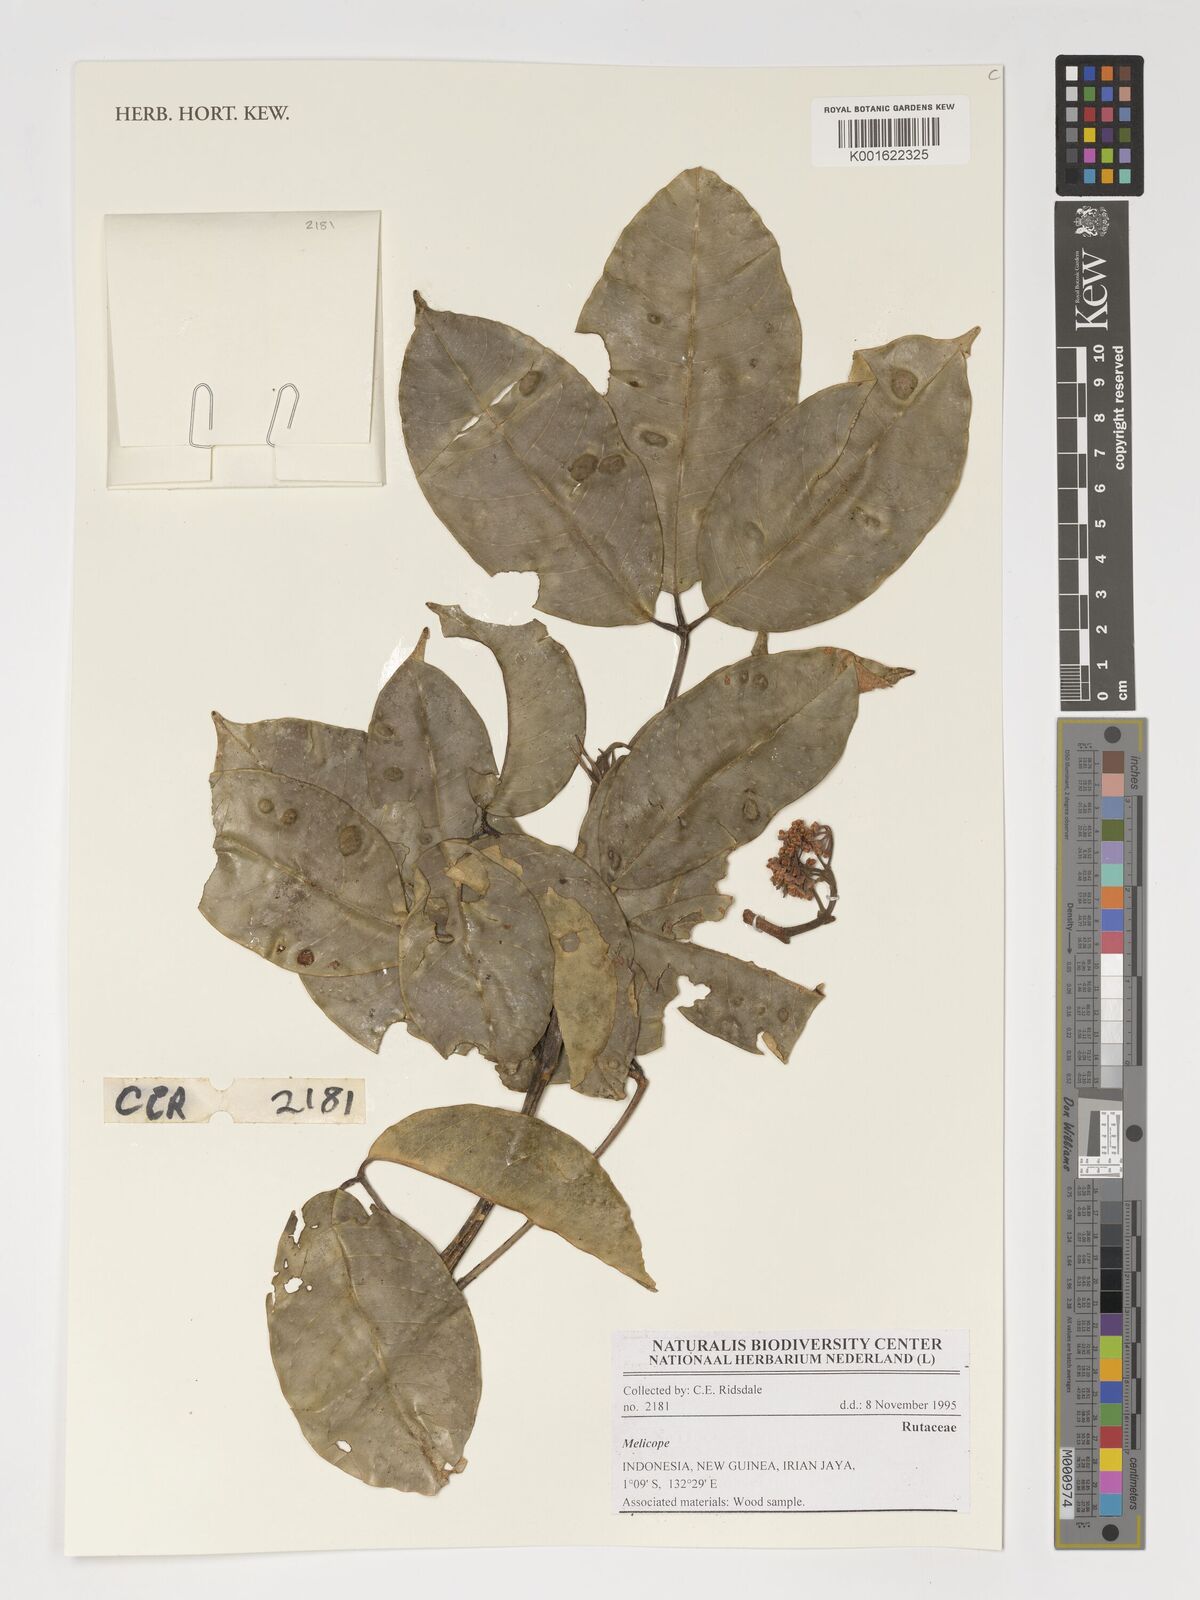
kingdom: Plantae
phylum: Tracheophyta
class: Magnoliopsida
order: Sapindales
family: Rutaceae
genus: Melicope
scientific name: Melicope
